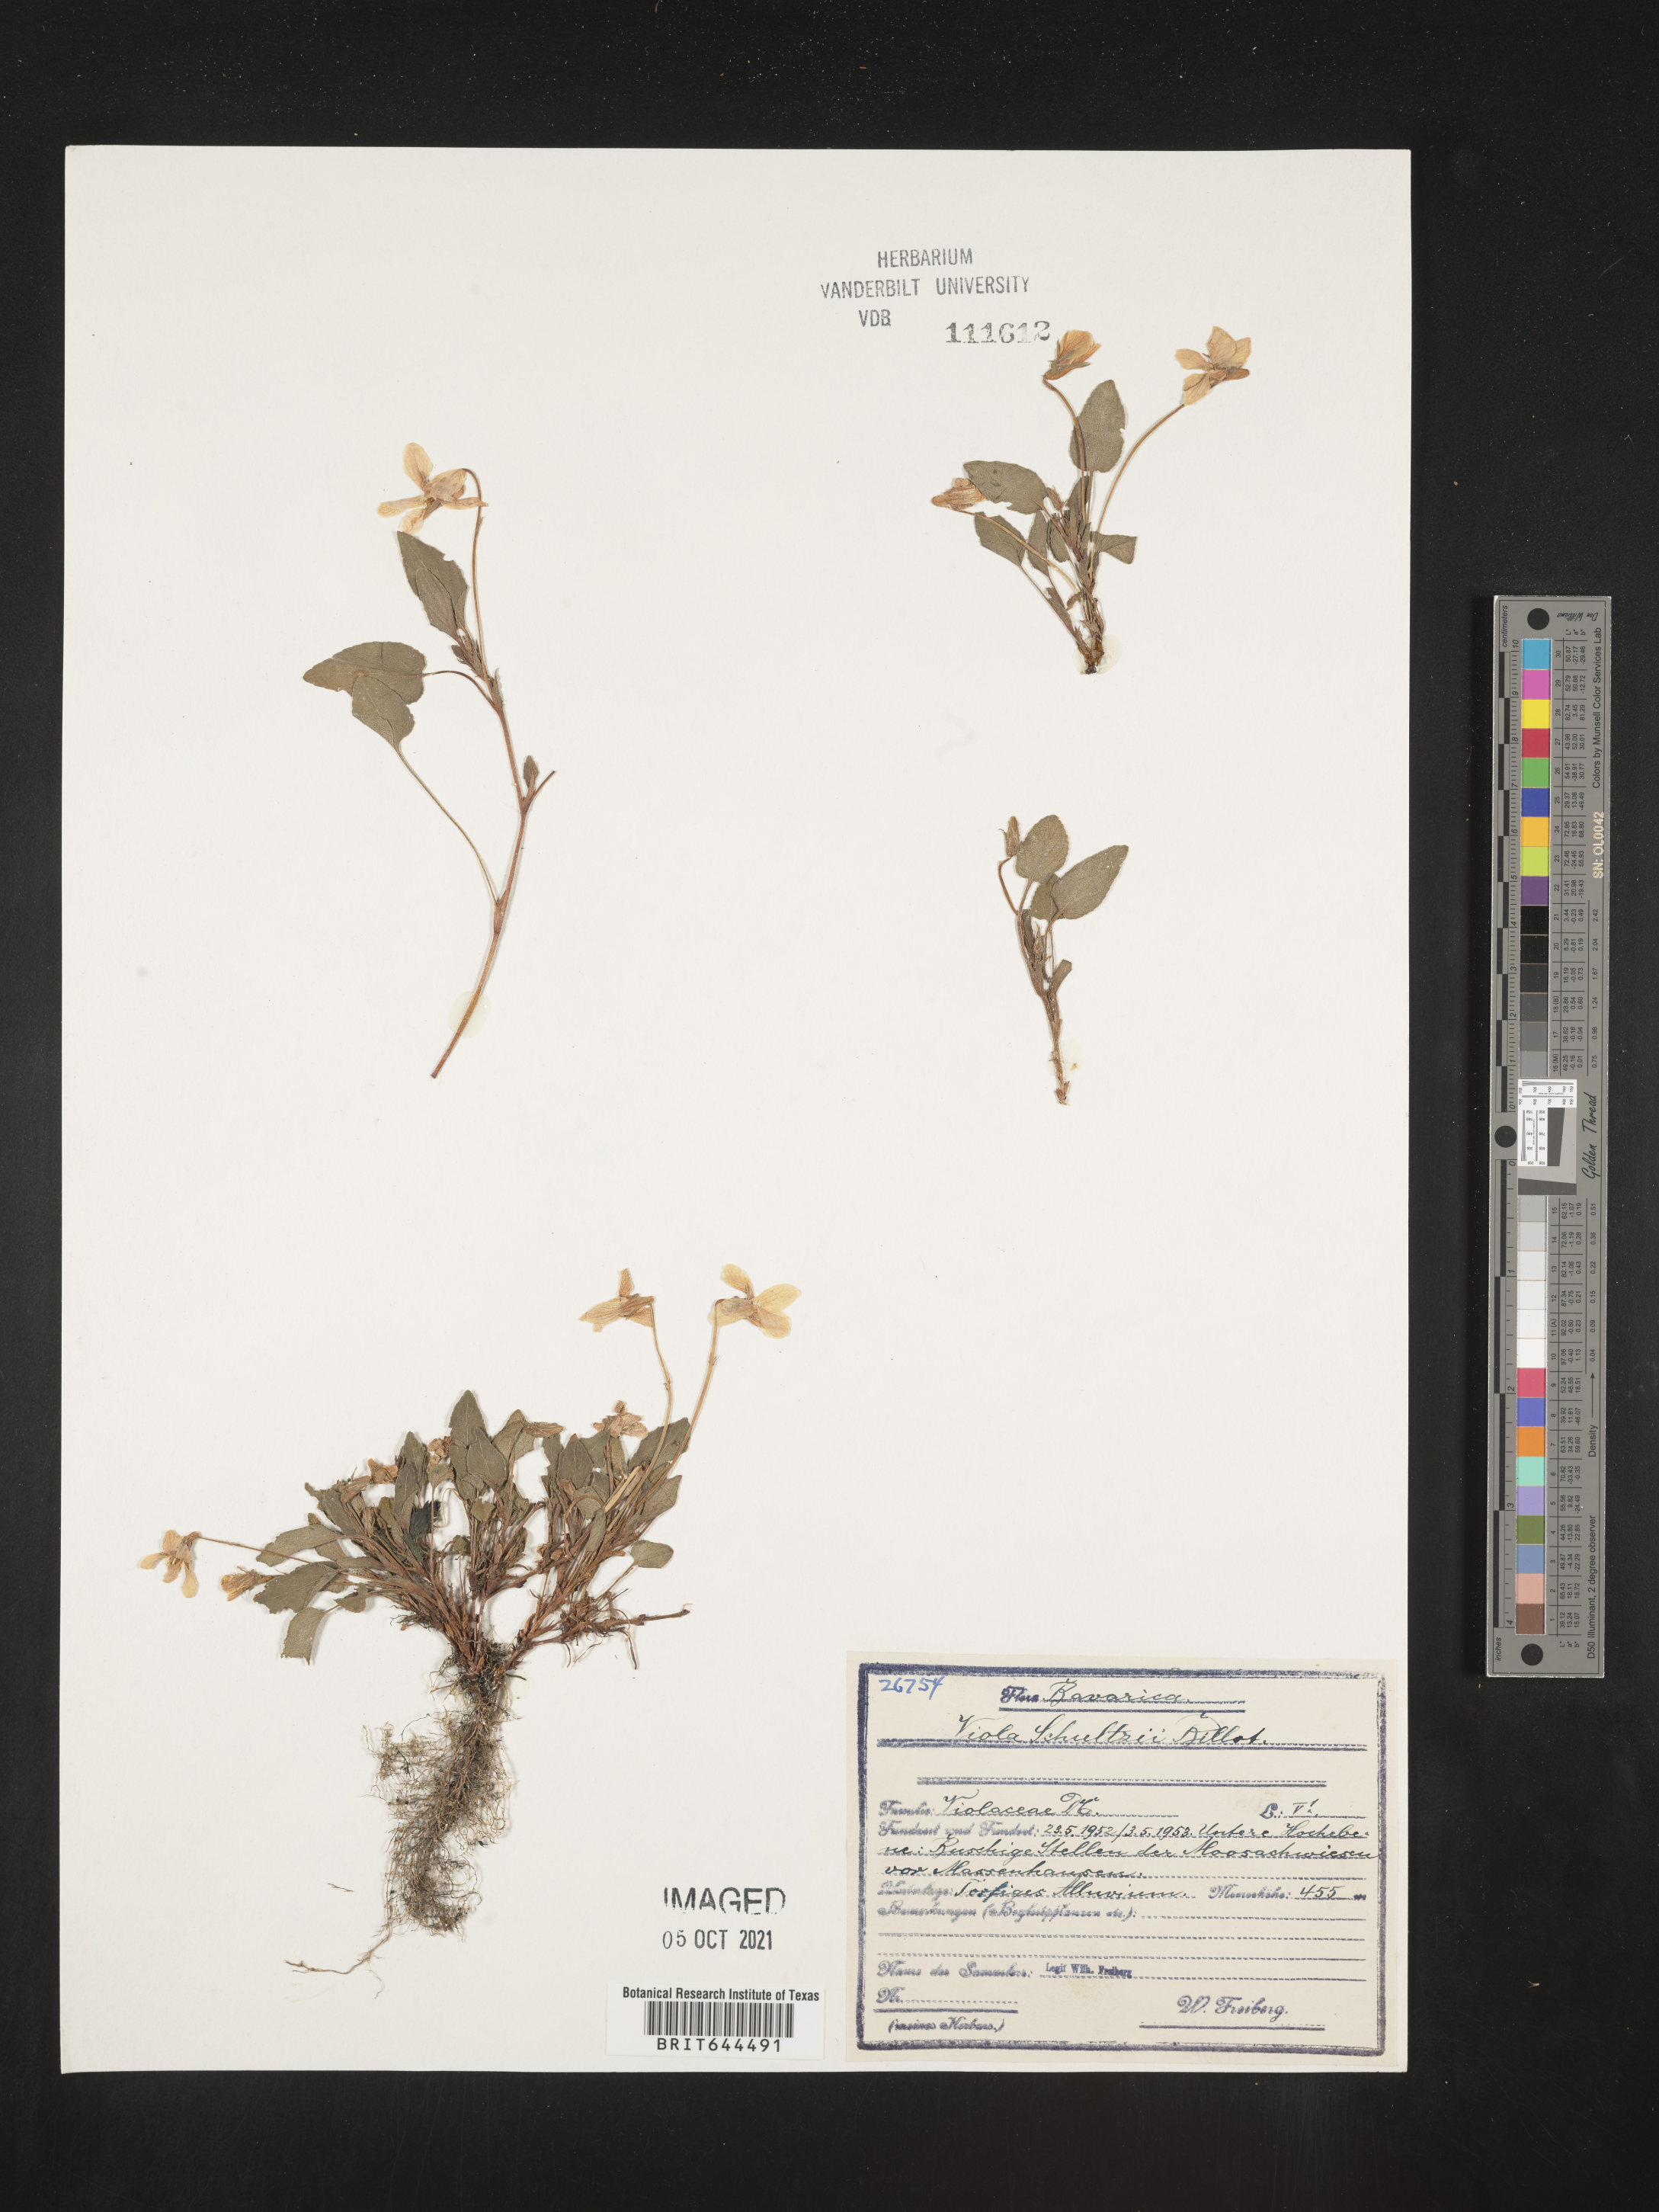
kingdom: Plantae
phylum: Tracheophyta
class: Magnoliopsida
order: Malpighiales
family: Violaceae
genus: Viola
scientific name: Viola
